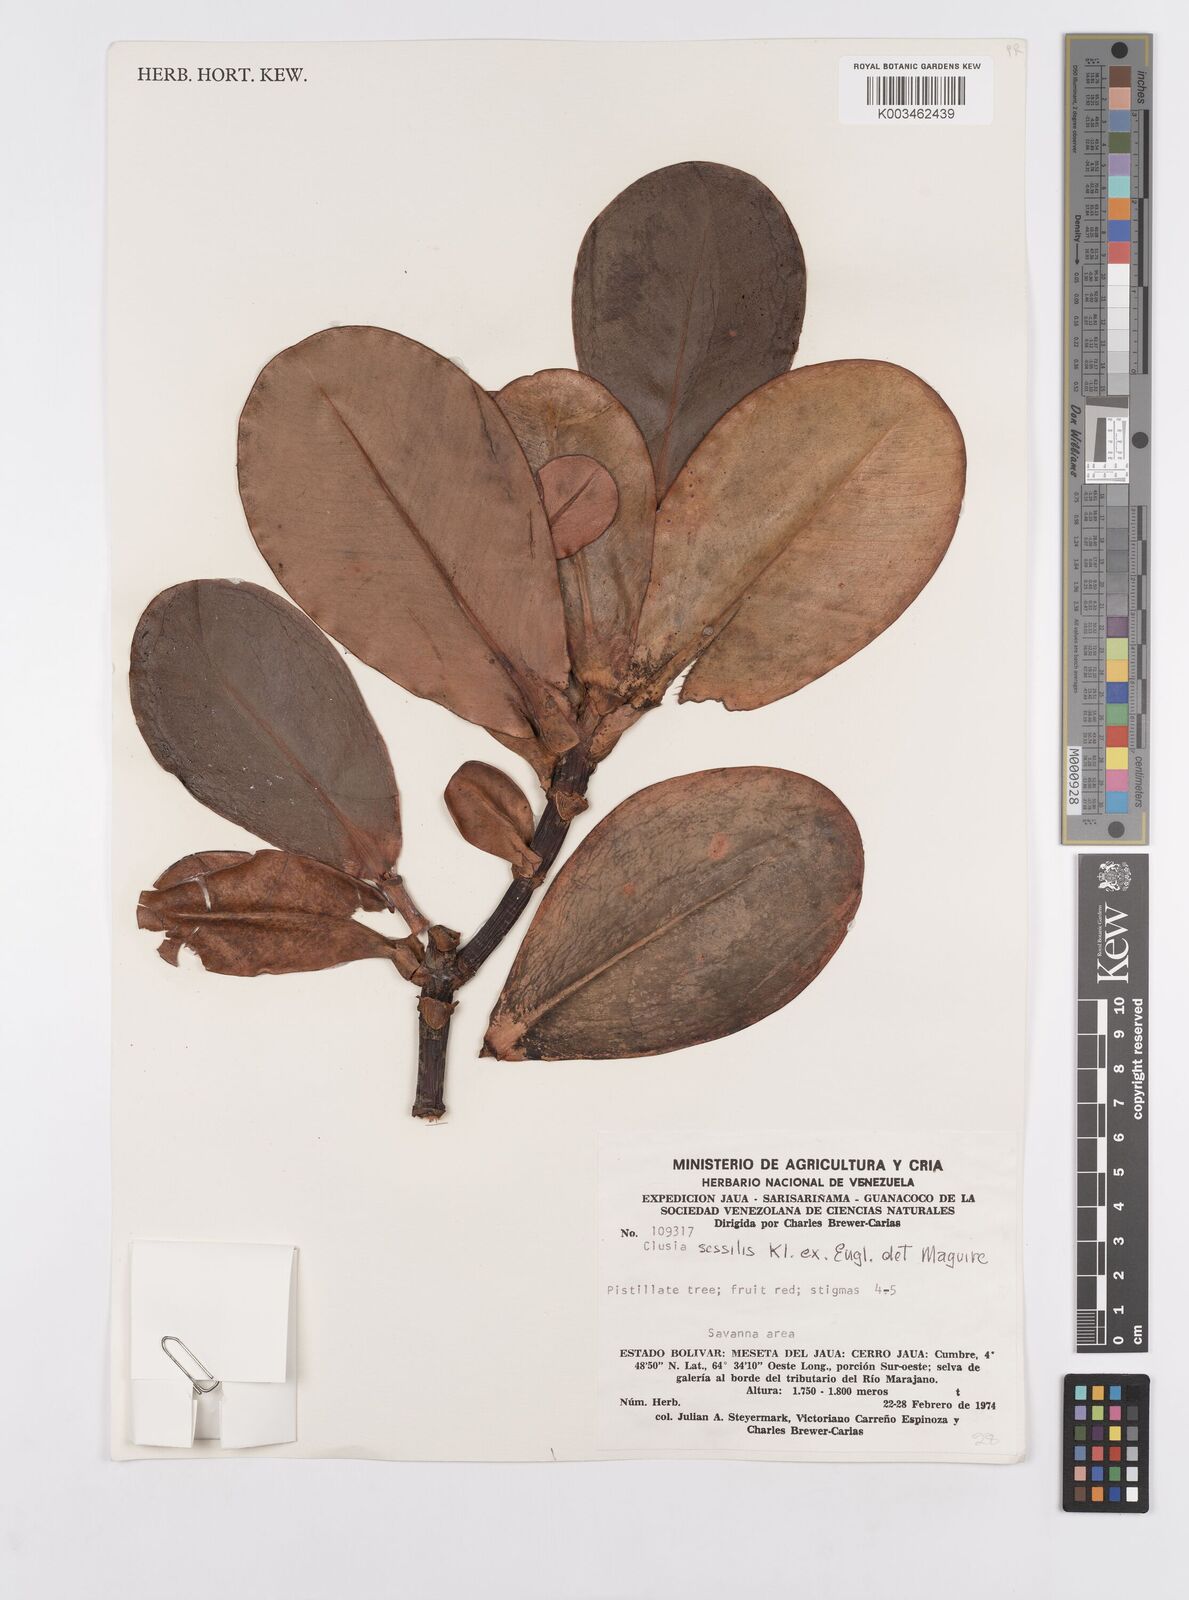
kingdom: Plantae
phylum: Tracheophyta
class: Magnoliopsida
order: Malpighiales
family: Clusiaceae
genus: Garcinia
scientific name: Garcinia sessilis
